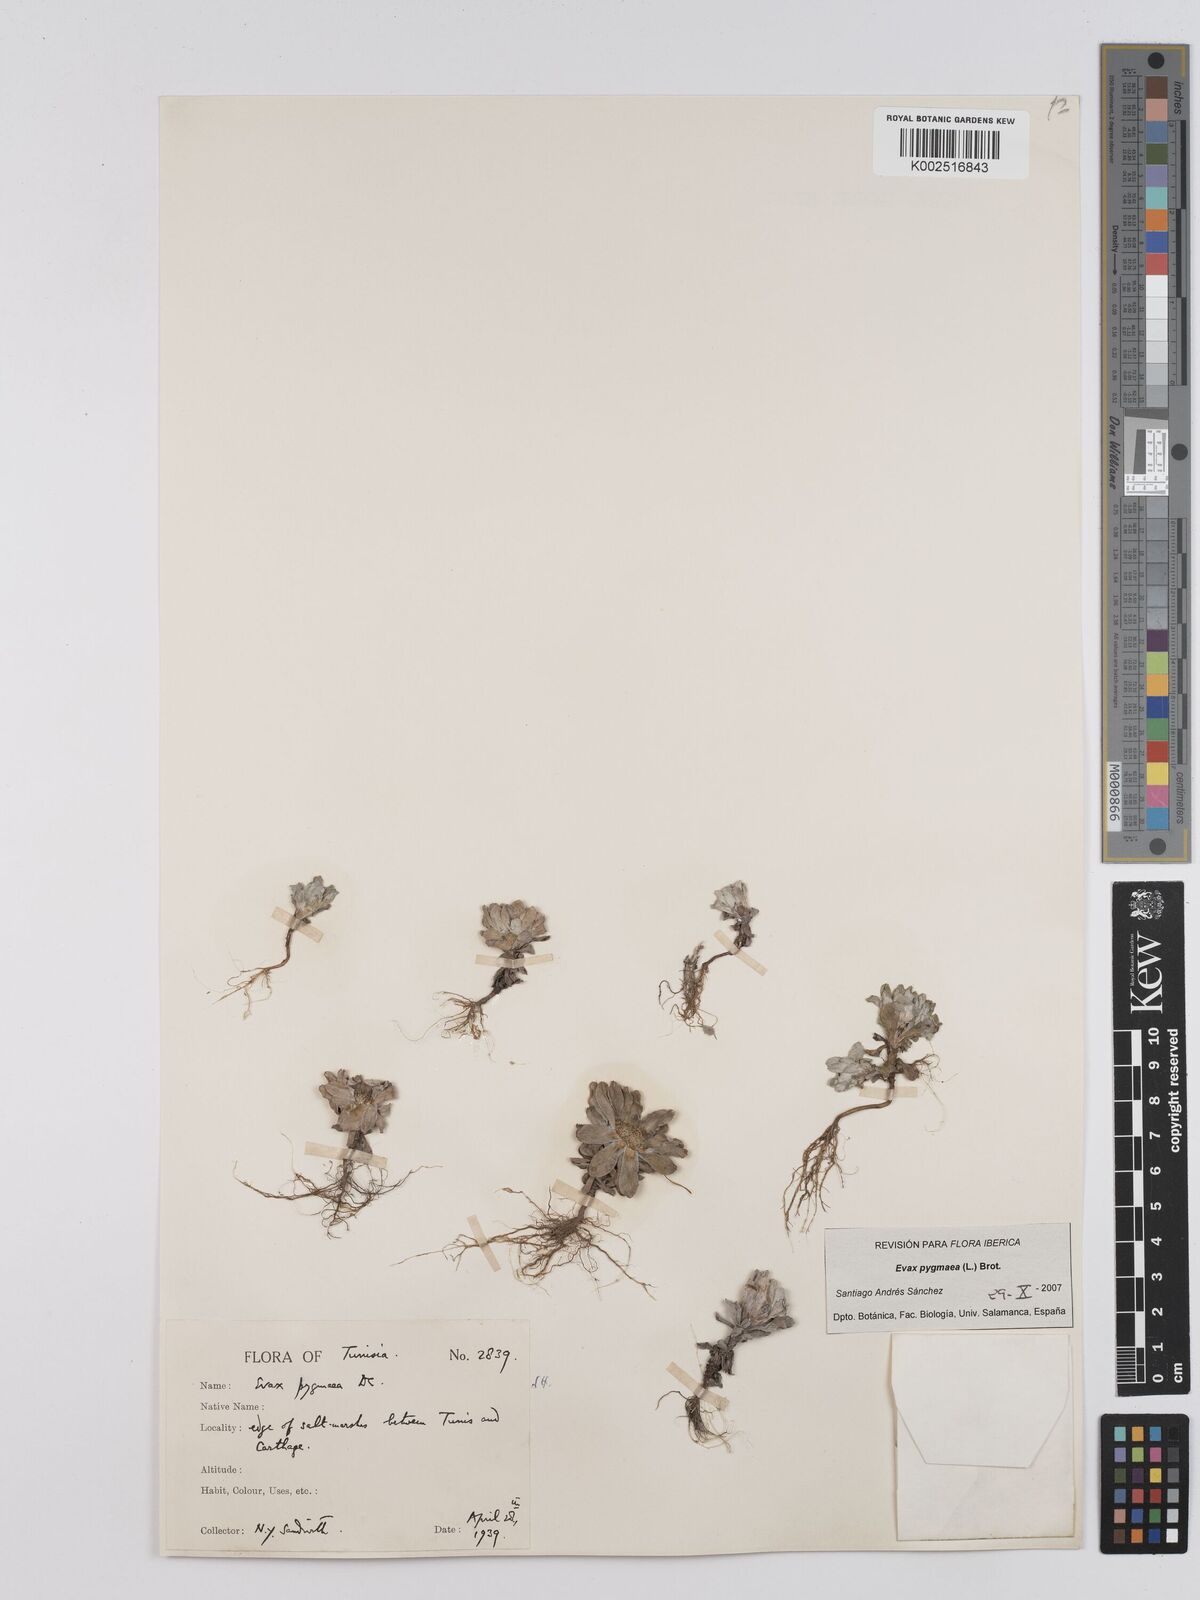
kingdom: Plantae
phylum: Tracheophyta
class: Magnoliopsida
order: Asterales
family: Asteraceae
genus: Filago
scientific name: Filago pygmaea
